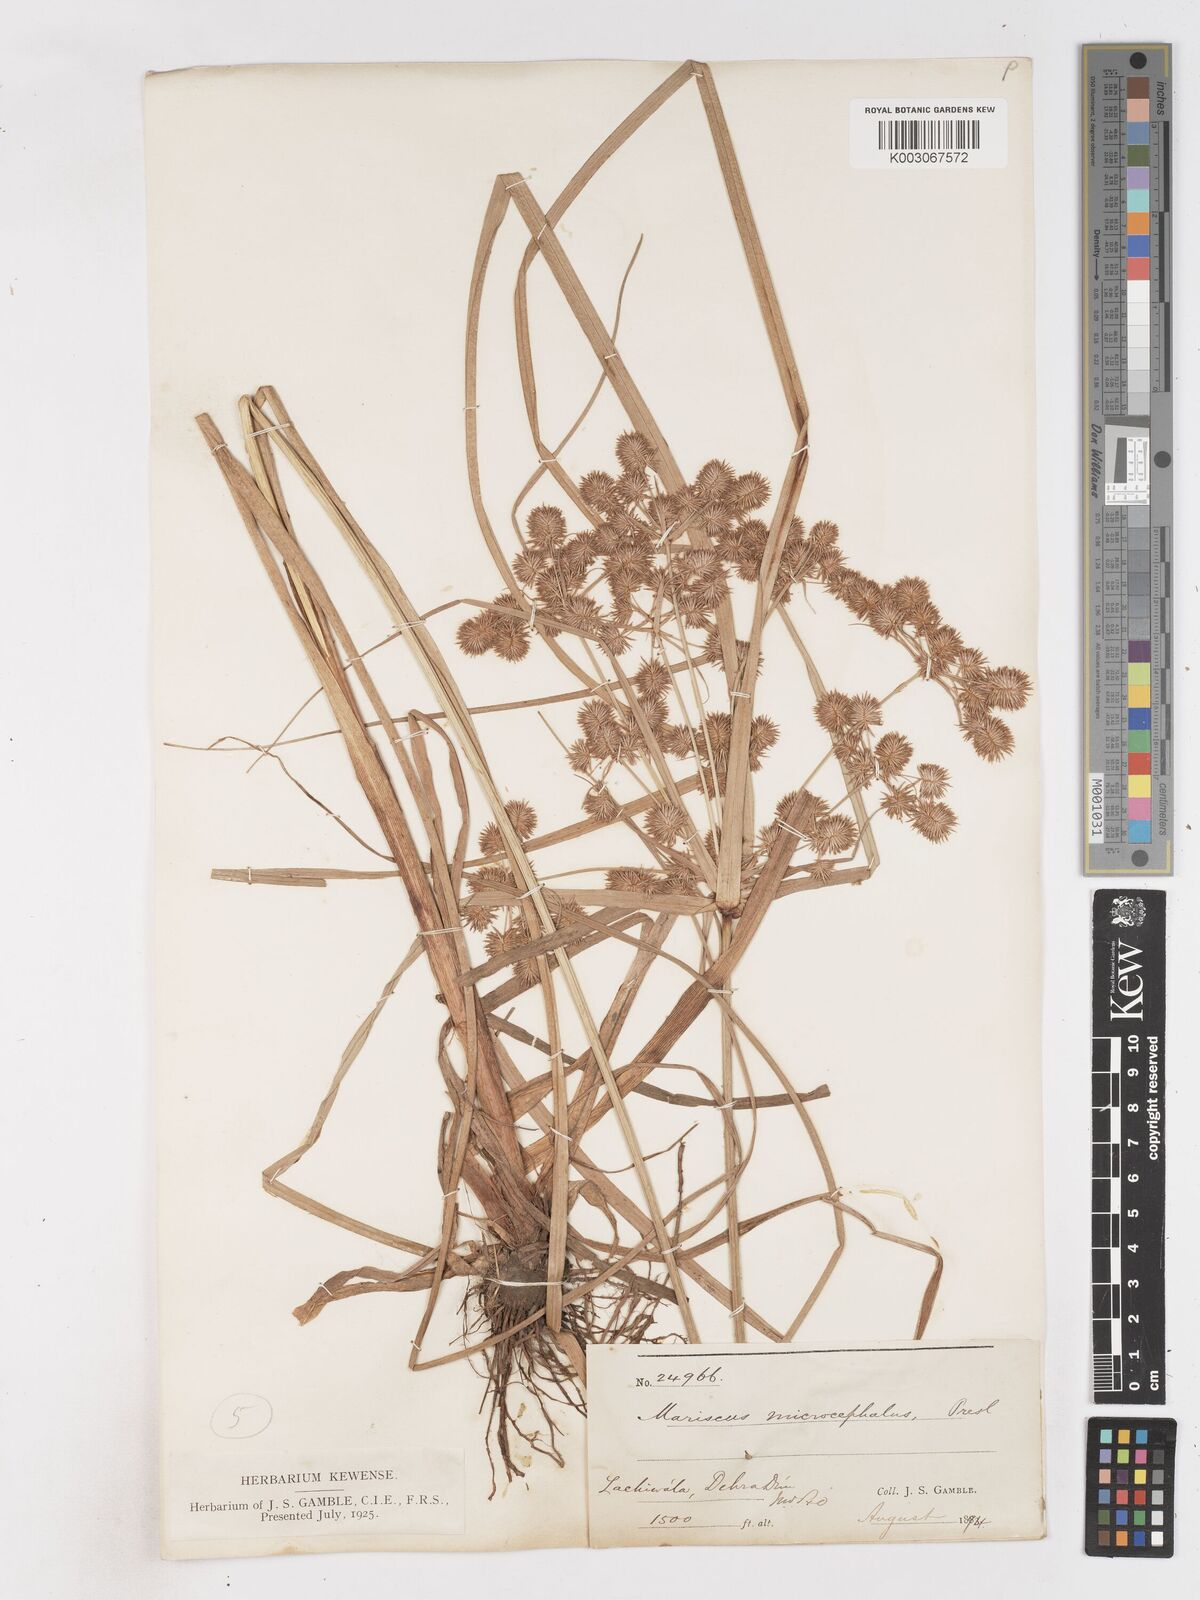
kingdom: Plantae
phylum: Tracheophyta
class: Liliopsida
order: Poales
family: Cyperaceae
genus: Cyperus
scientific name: Cyperus compactus
